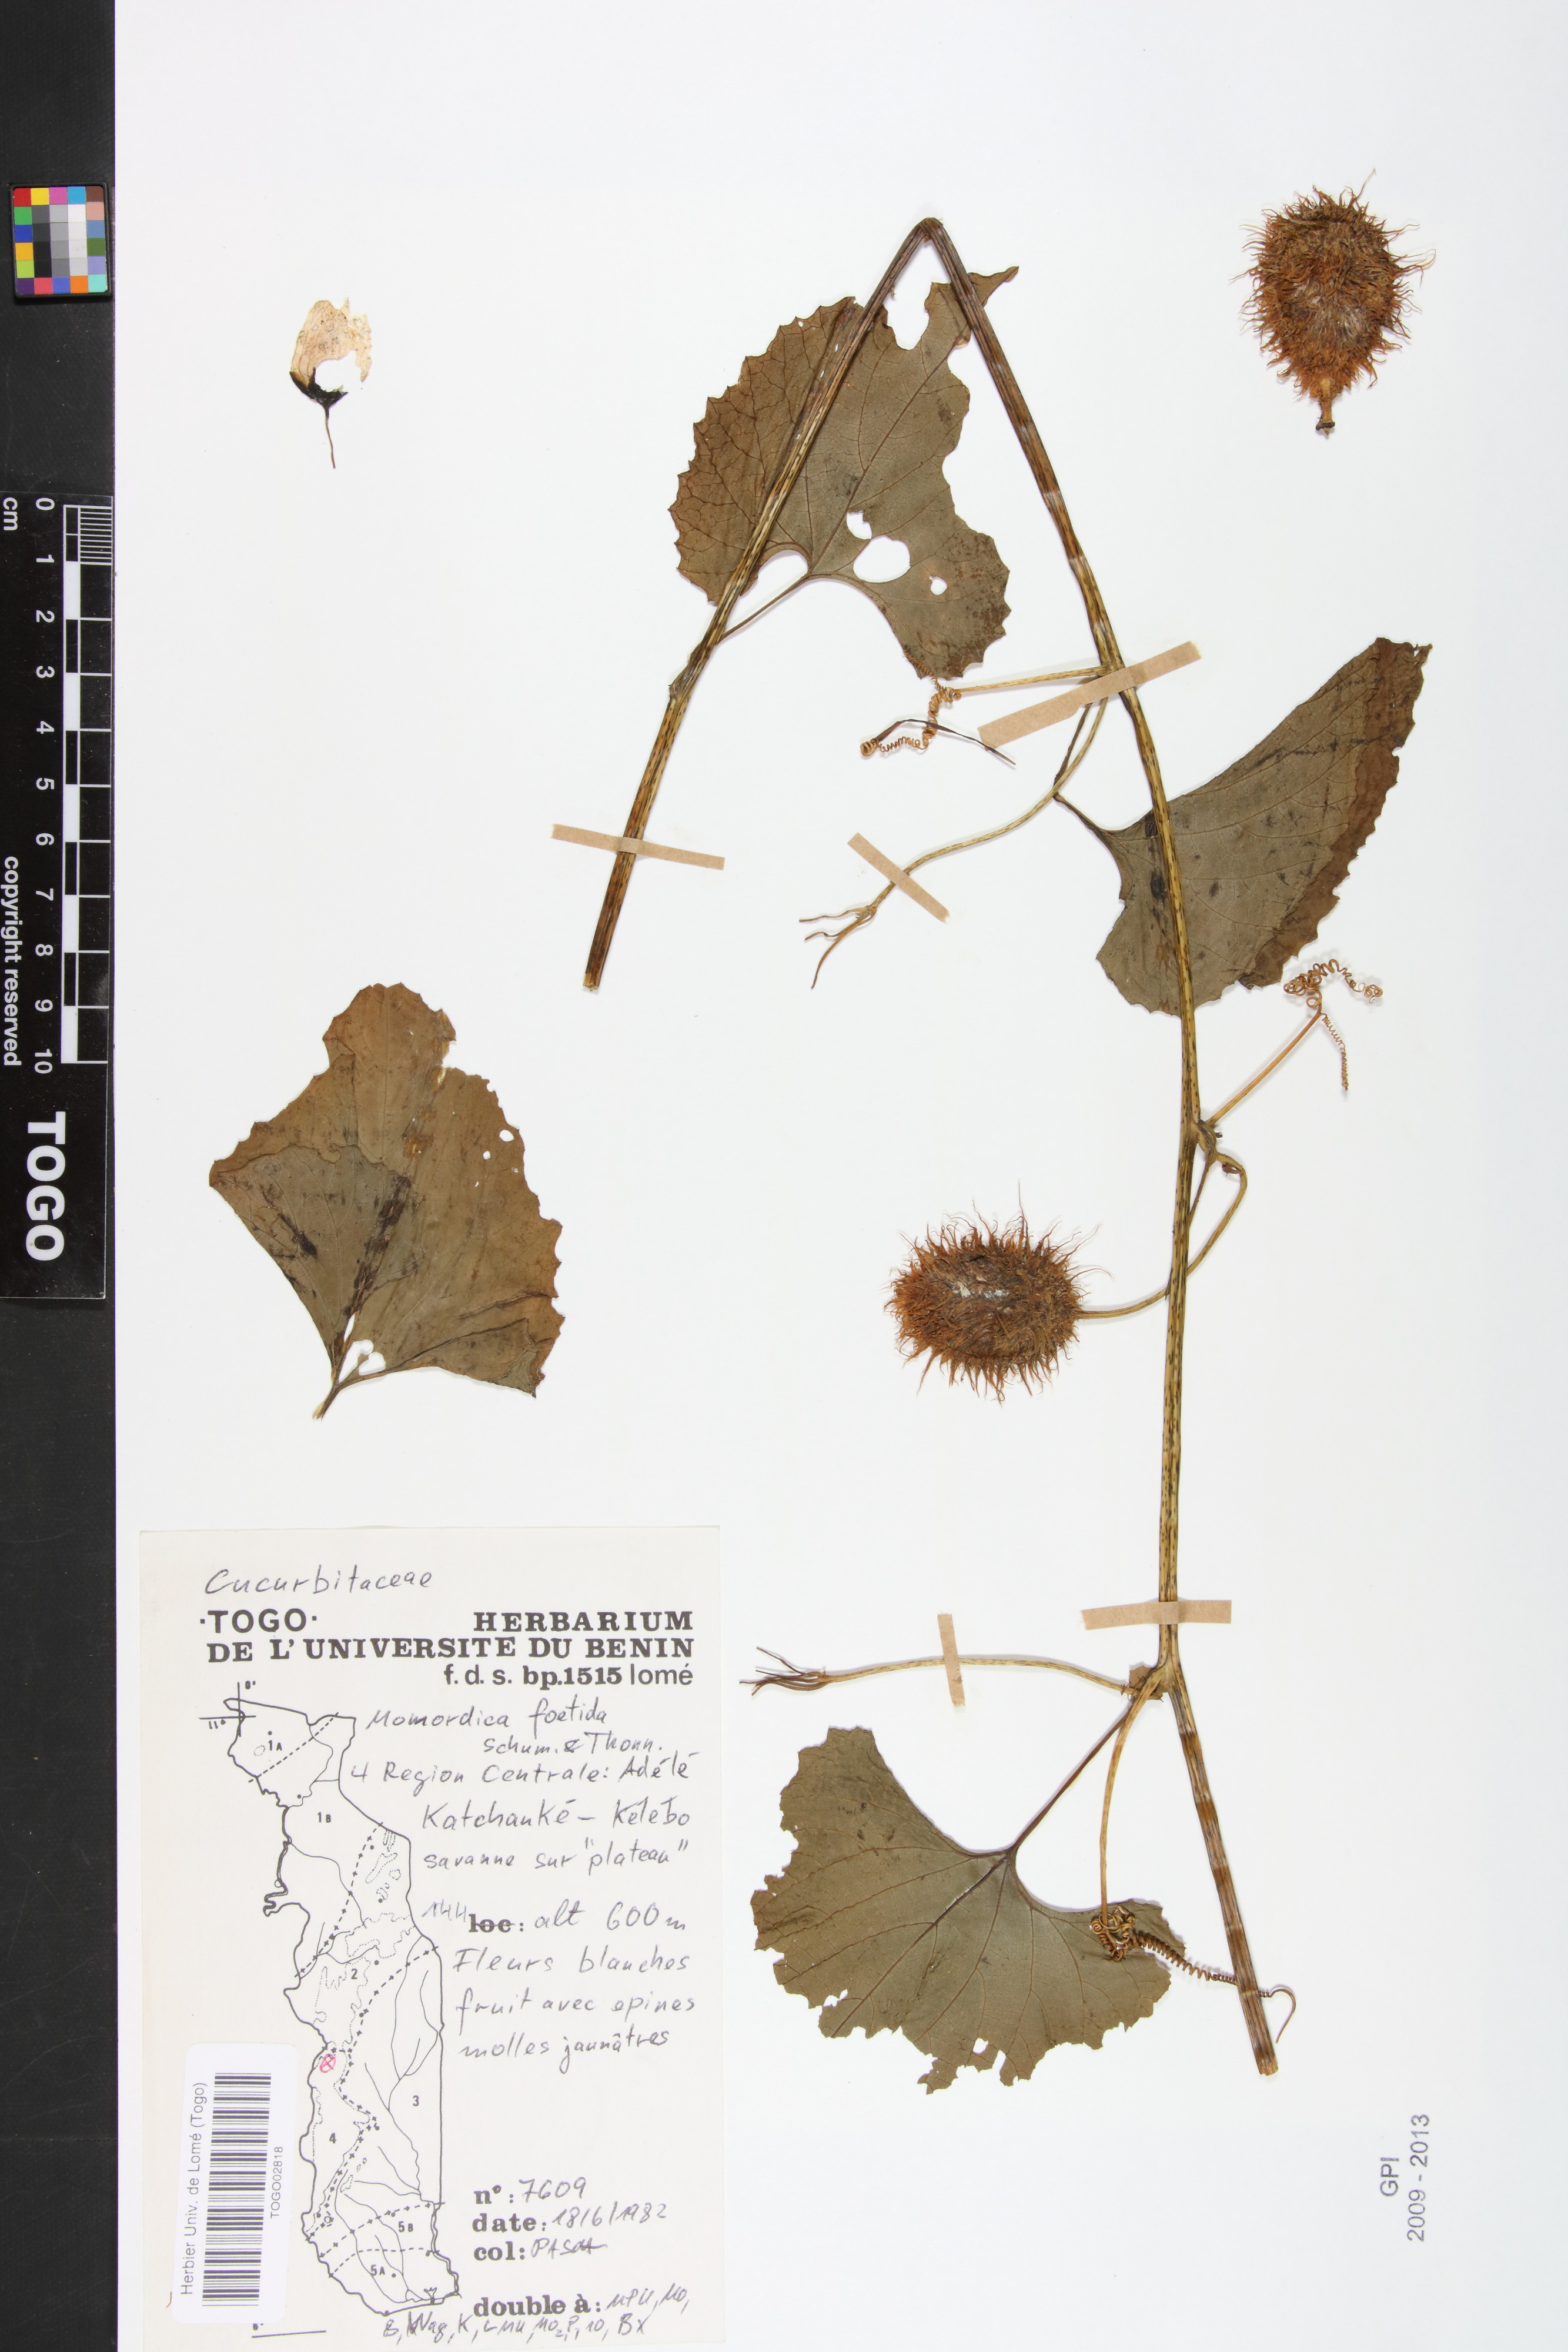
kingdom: Plantae
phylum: Tracheophyta
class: Magnoliopsida
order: Cucurbitales
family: Cucurbitaceae
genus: Momordica
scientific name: Momordica foetida
